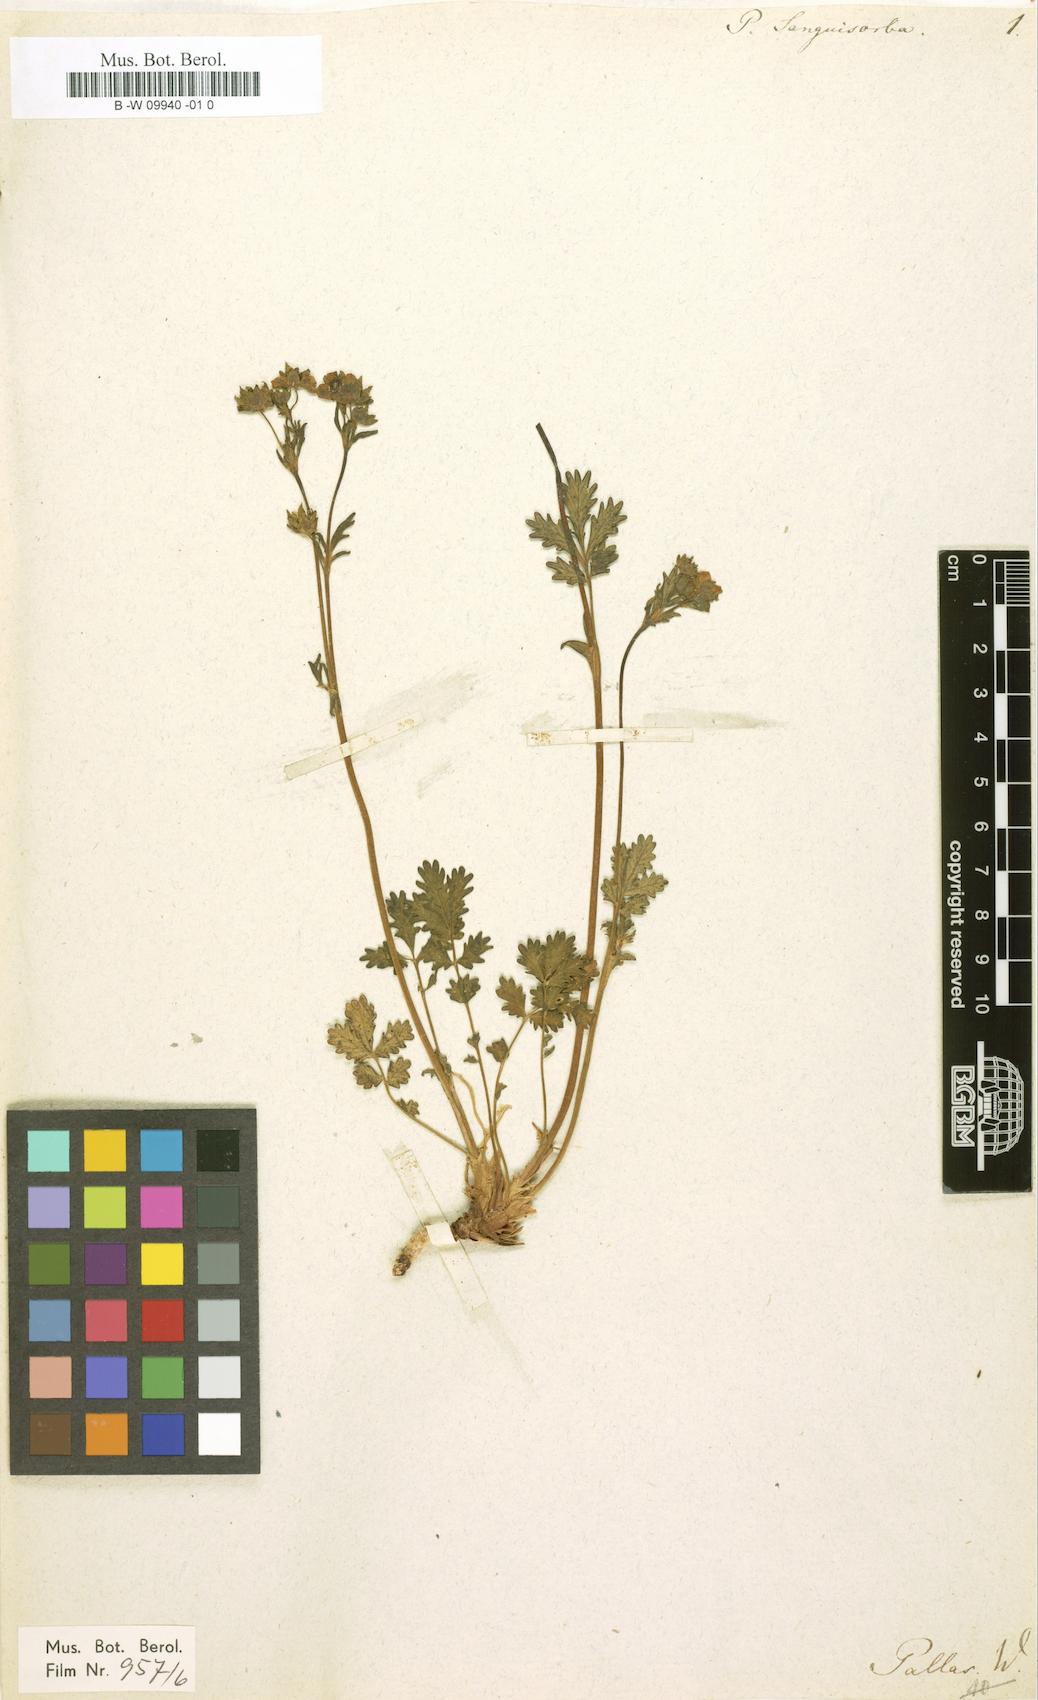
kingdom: Plantae
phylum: Tracheophyta
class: Magnoliopsida
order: Rosales
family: Rosaceae
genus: Potentilla
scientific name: Potentilla sanguisorba
